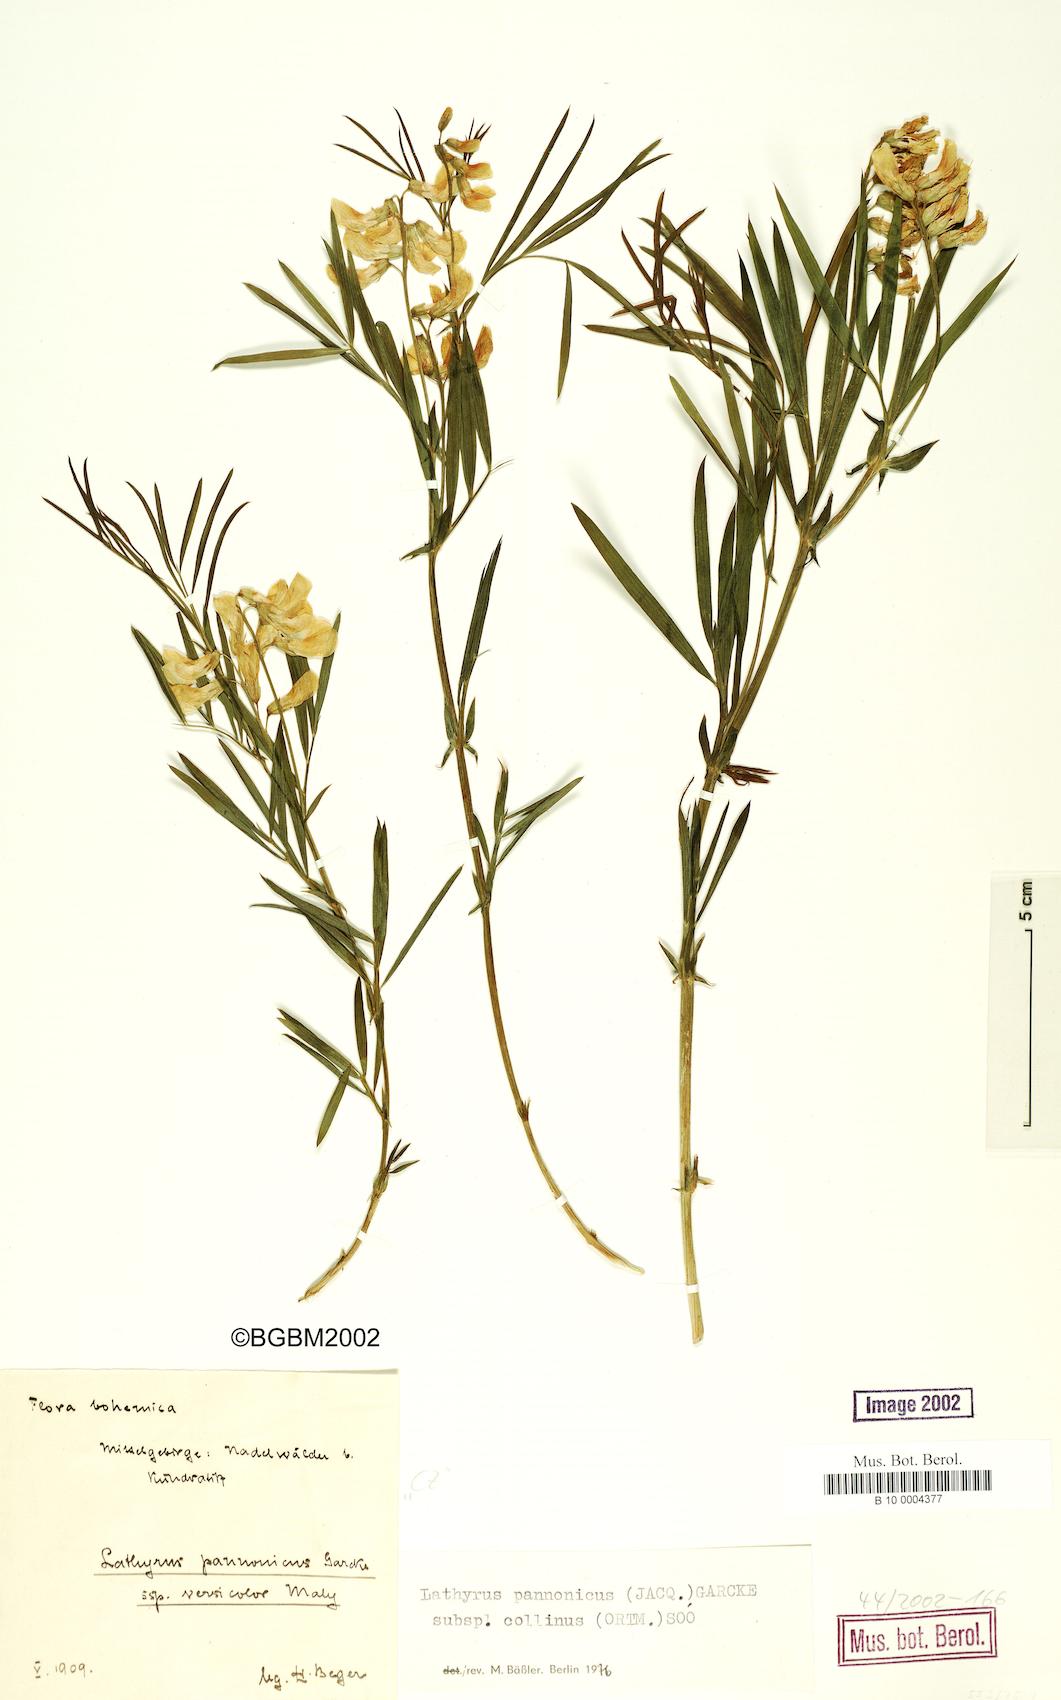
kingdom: Plantae
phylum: Tracheophyta
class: Magnoliopsida
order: Fabales
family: Fabaceae
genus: Lathyrus
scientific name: Lathyrus pannonicus
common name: Pea
